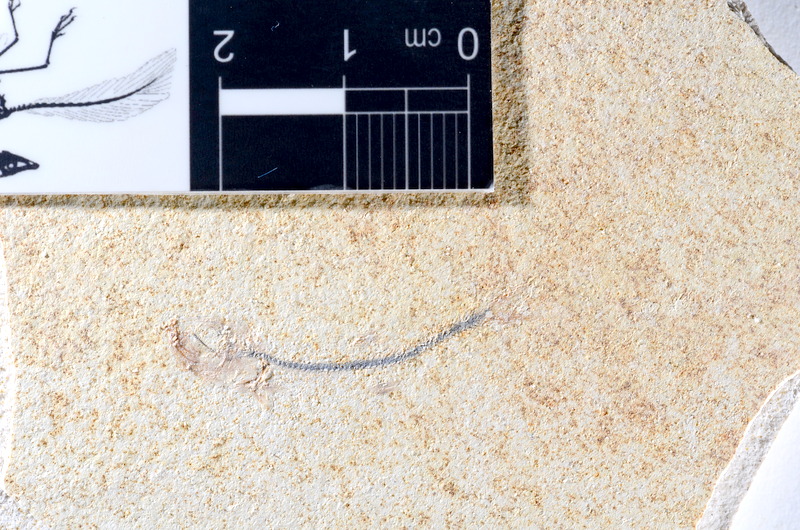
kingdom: Animalia
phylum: Chordata
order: Salmoniformes
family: Orthogonikleithridae
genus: Orthogonikleithrus
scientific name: Orthogonikleithrus hoelli
